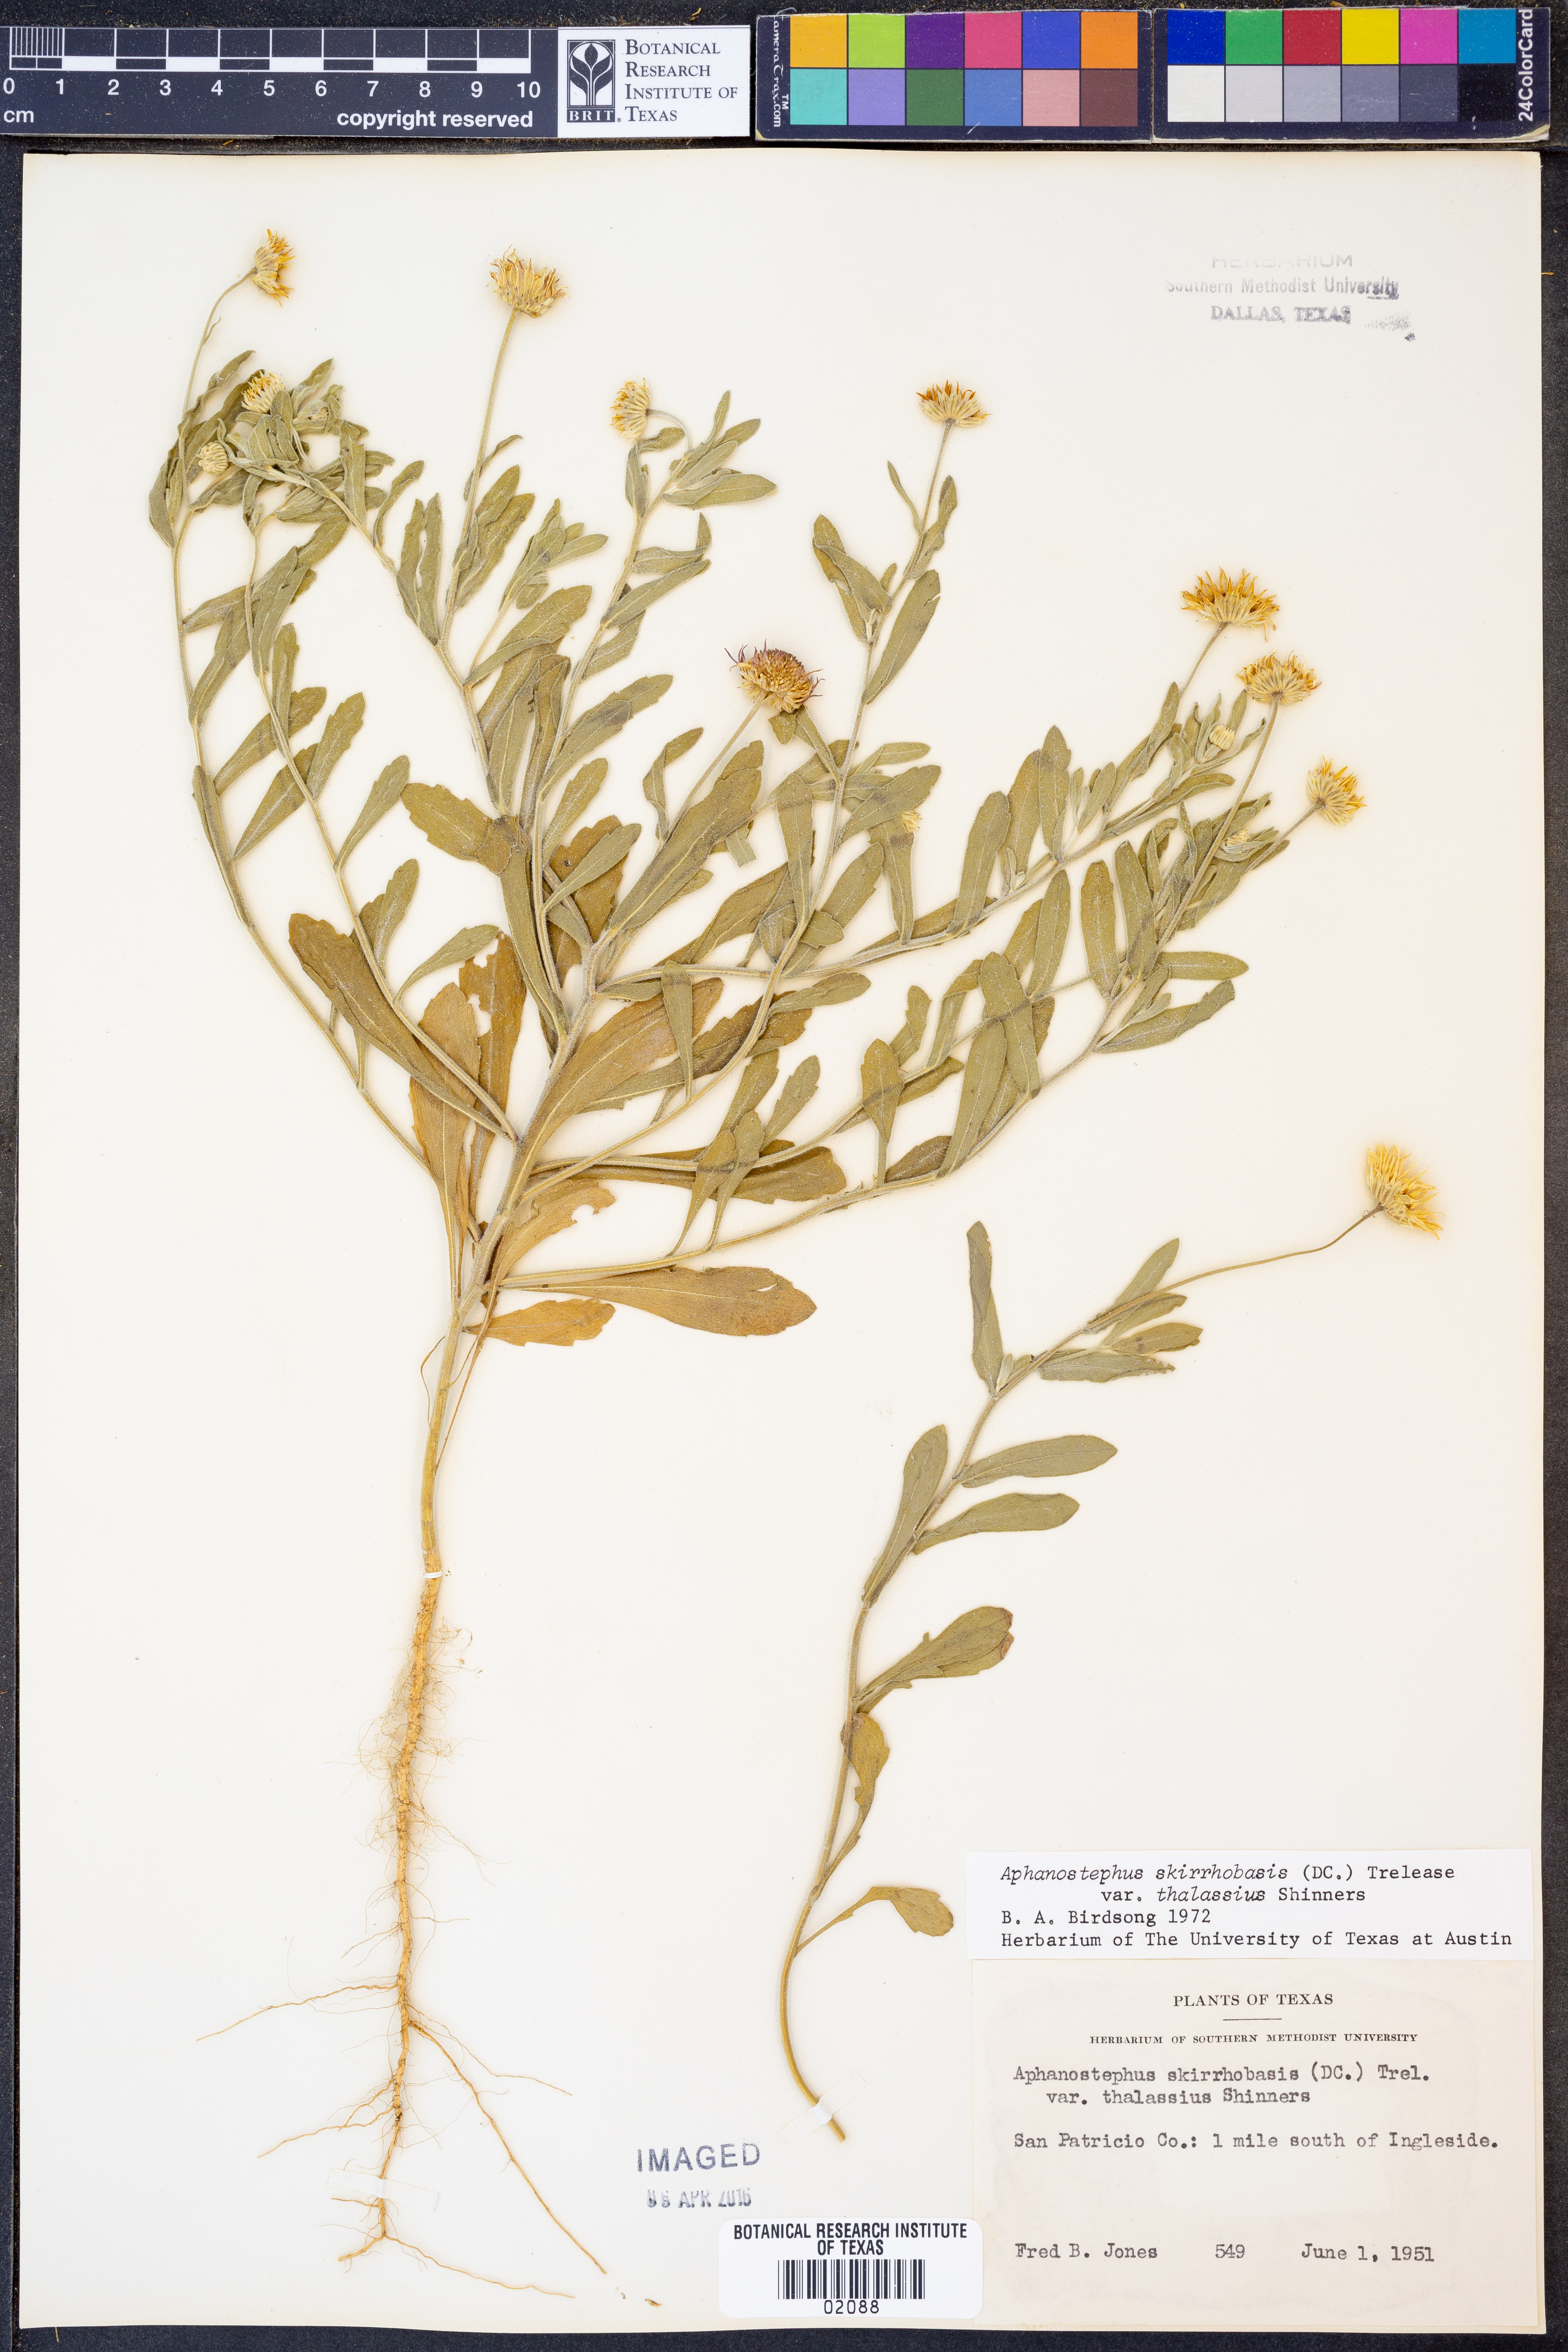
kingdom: Plantae
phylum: Tracheophyta
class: Magnoliopsida
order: Asterales
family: Asteraceae
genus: Aphanostephus
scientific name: Aphanostephus skirrhobasis
